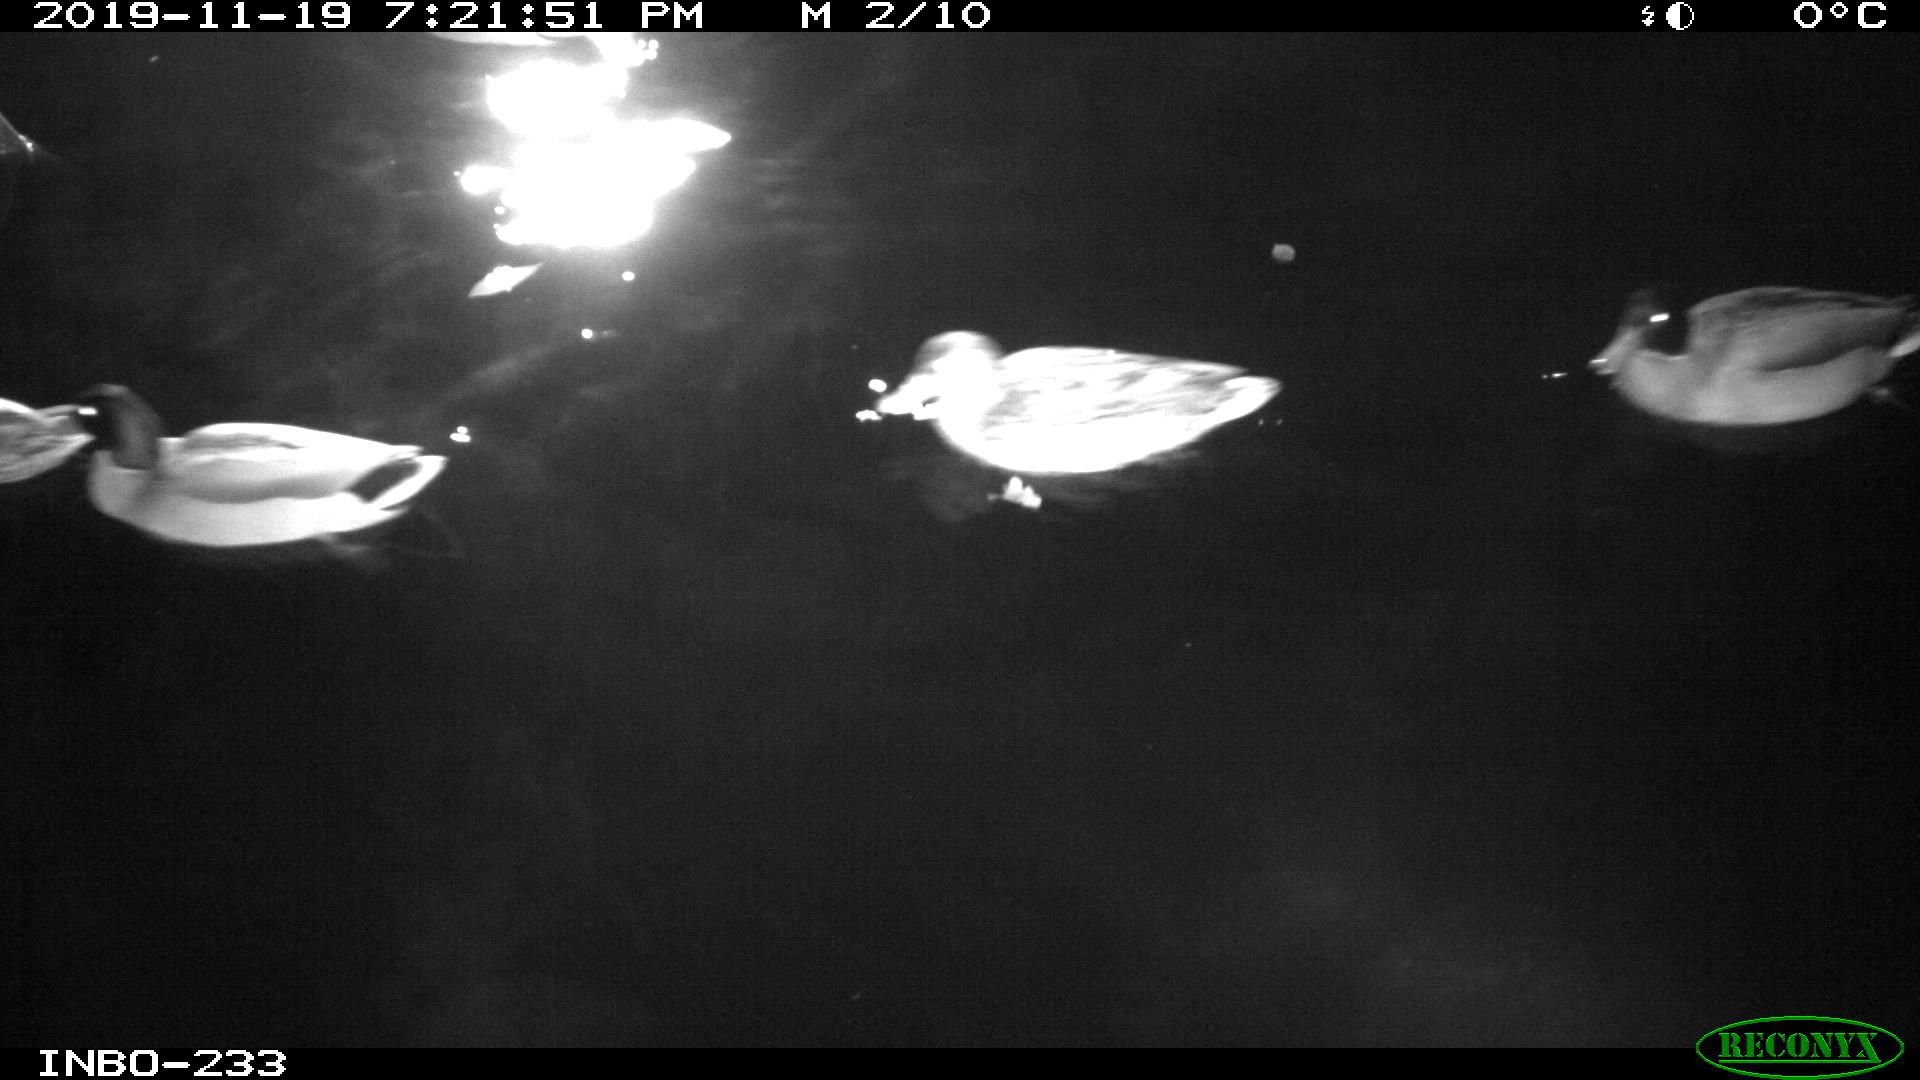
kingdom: Animalia
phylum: Chordata
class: Aves
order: Anseriformes
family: Anatidae
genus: Anas
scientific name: Anas platyrhynchos
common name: Mallard
